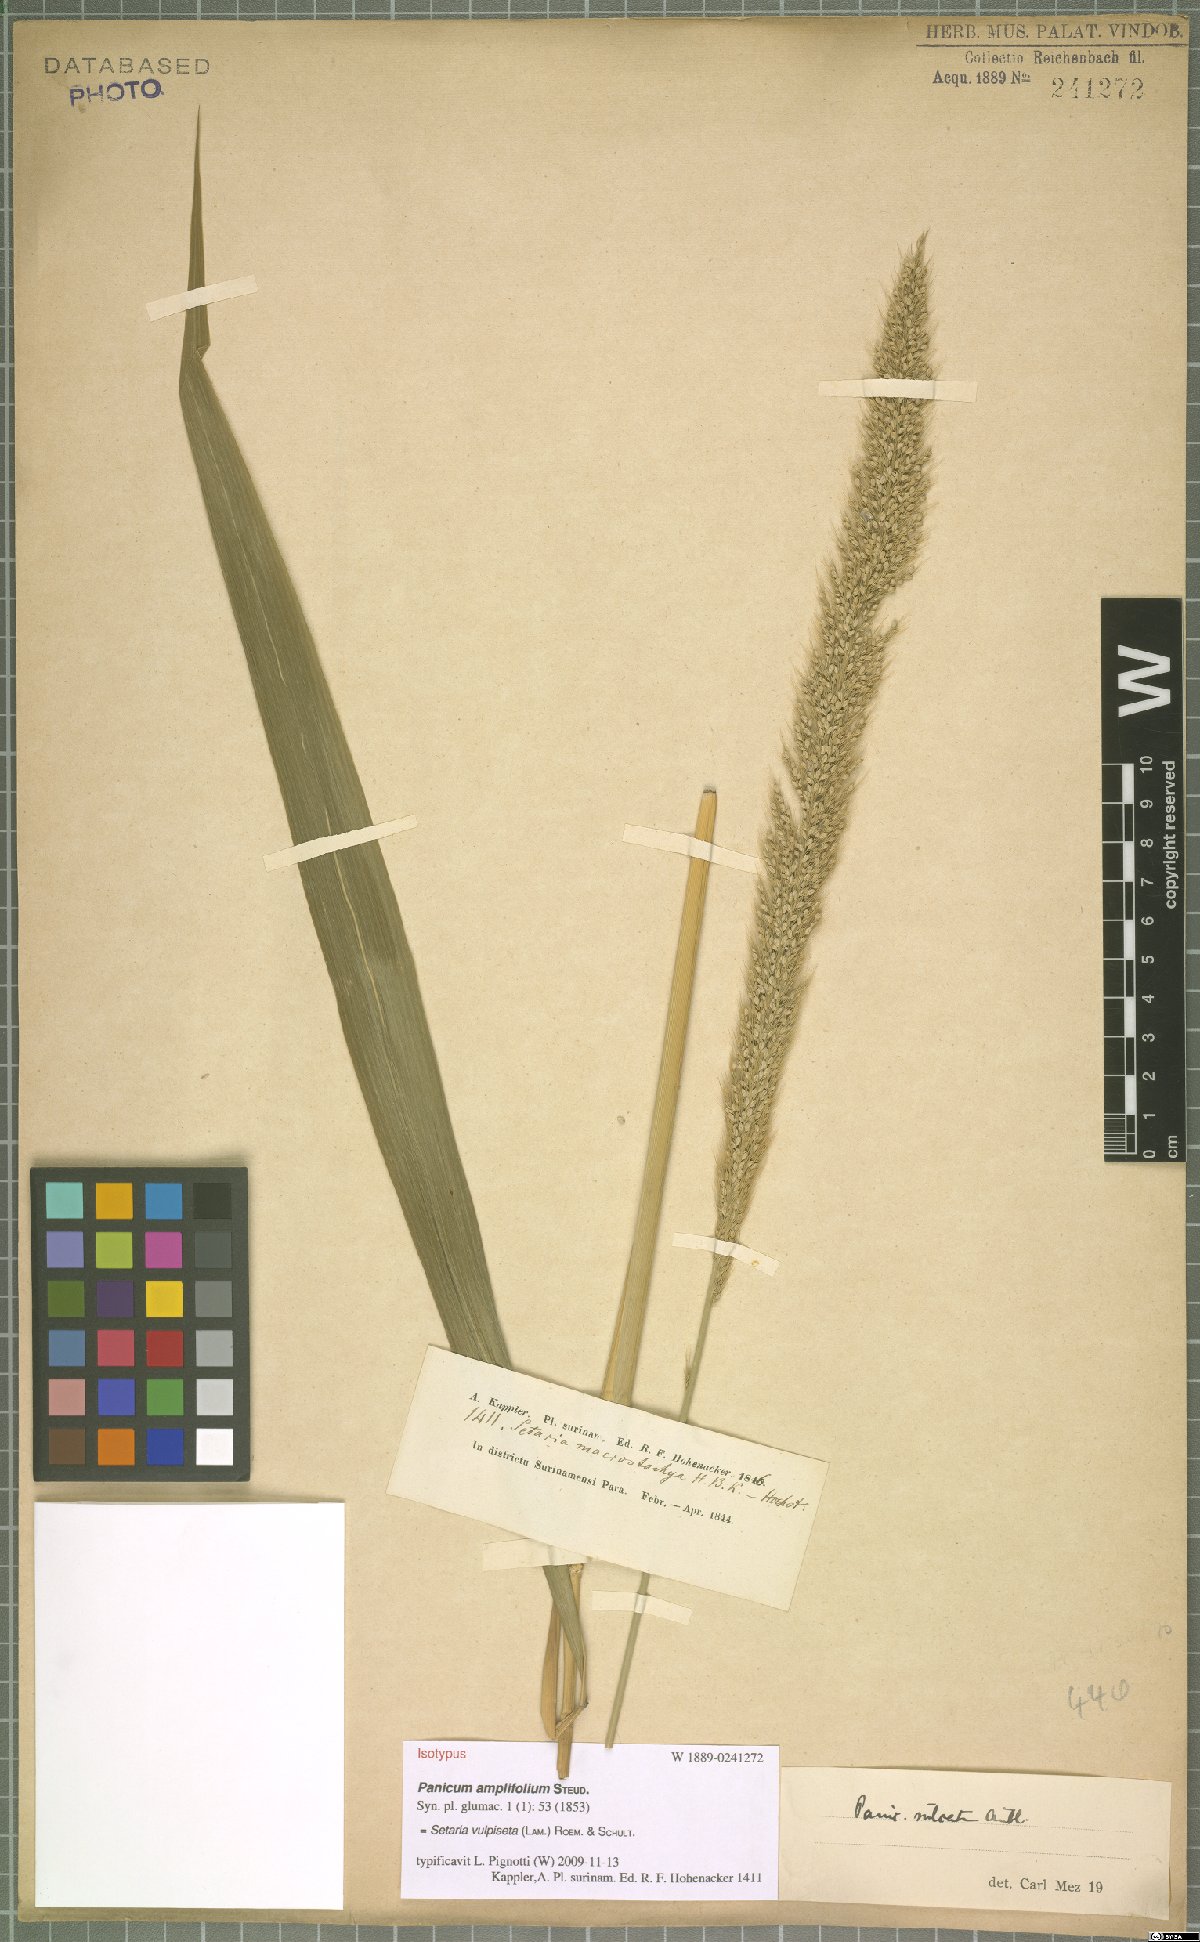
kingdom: Plantae
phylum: Tracheophyta
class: Liliopsida
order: Poales
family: Poaceae
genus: Setaria
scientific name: Setaria vulpiseta
